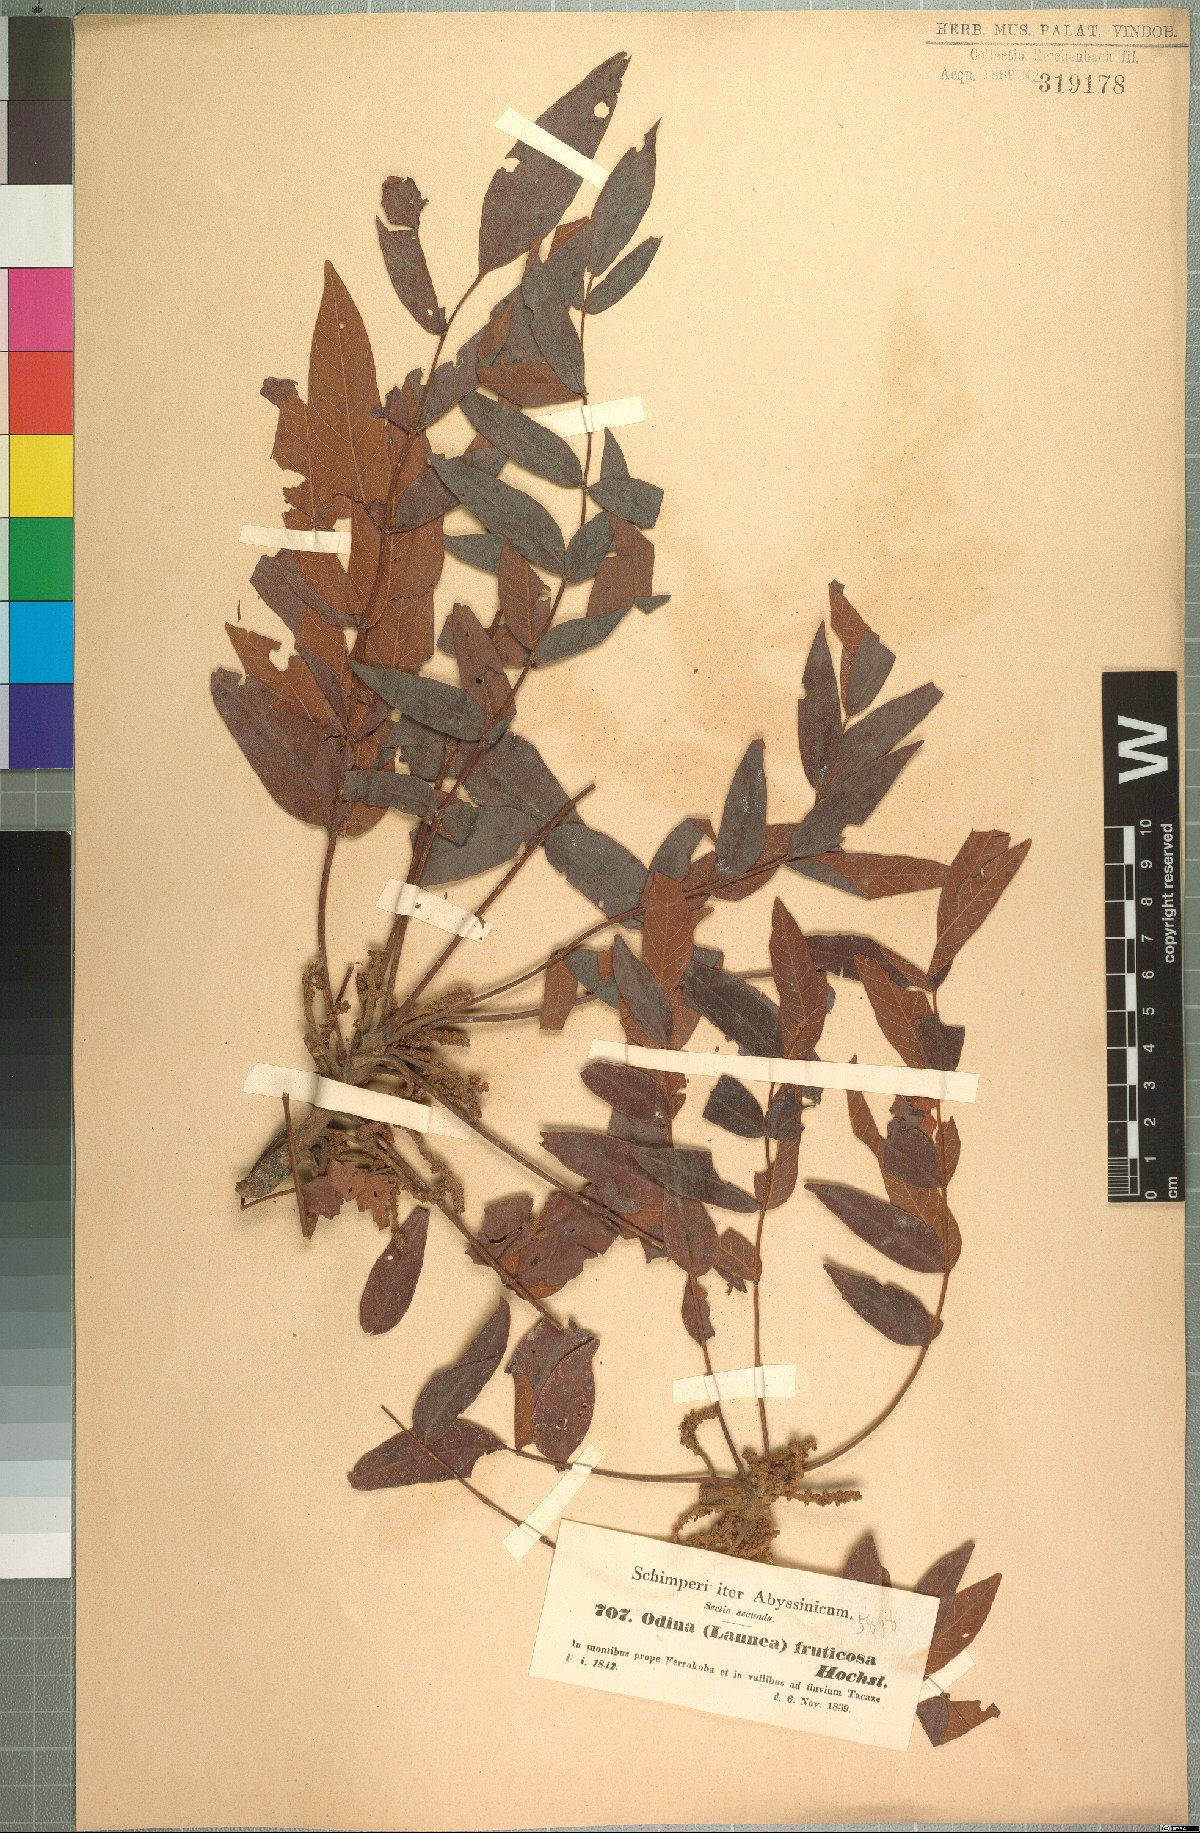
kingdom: Plantae
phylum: Tracheophyta
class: Magnoliopsida
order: Sapindales
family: Anacardiaceae
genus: Lannea
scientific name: Lannea fruticosa
